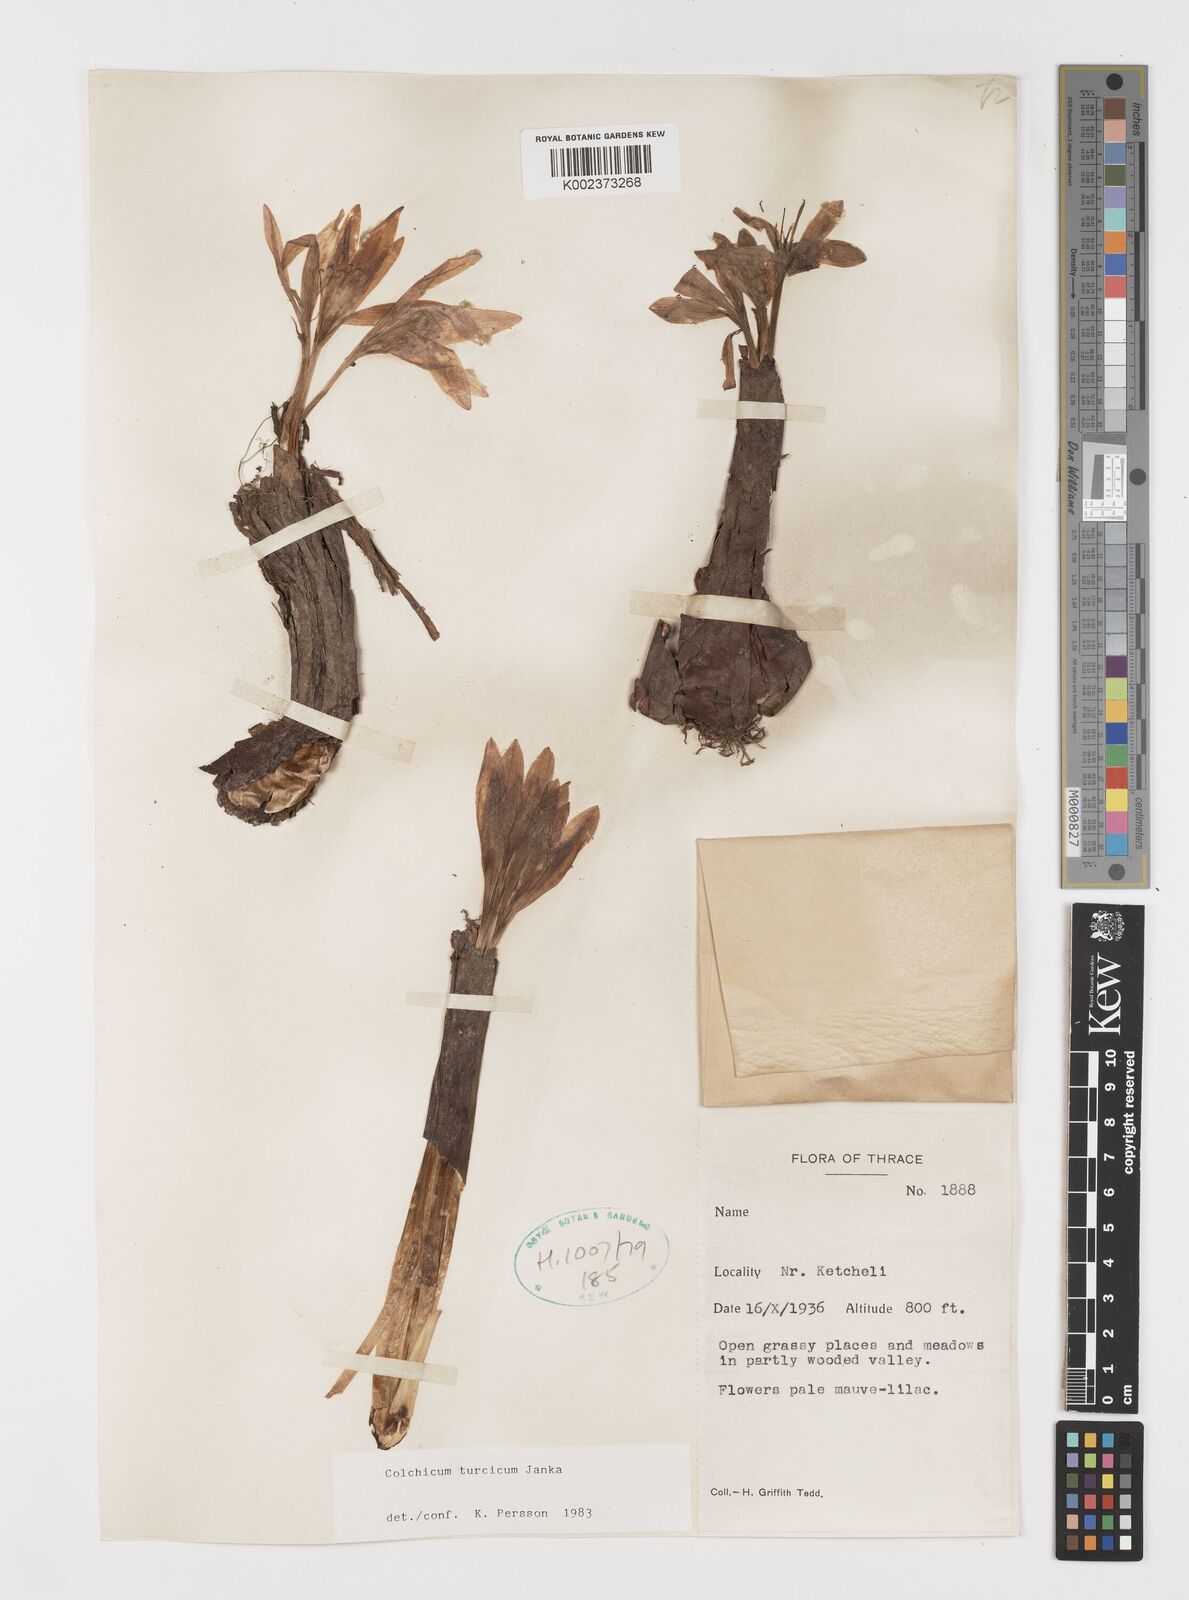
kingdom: Plantae
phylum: Tracheophyta
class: Liliopsida
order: Liliales
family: Colchicaceae
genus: Colchicum
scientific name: Colchicum turcicum
